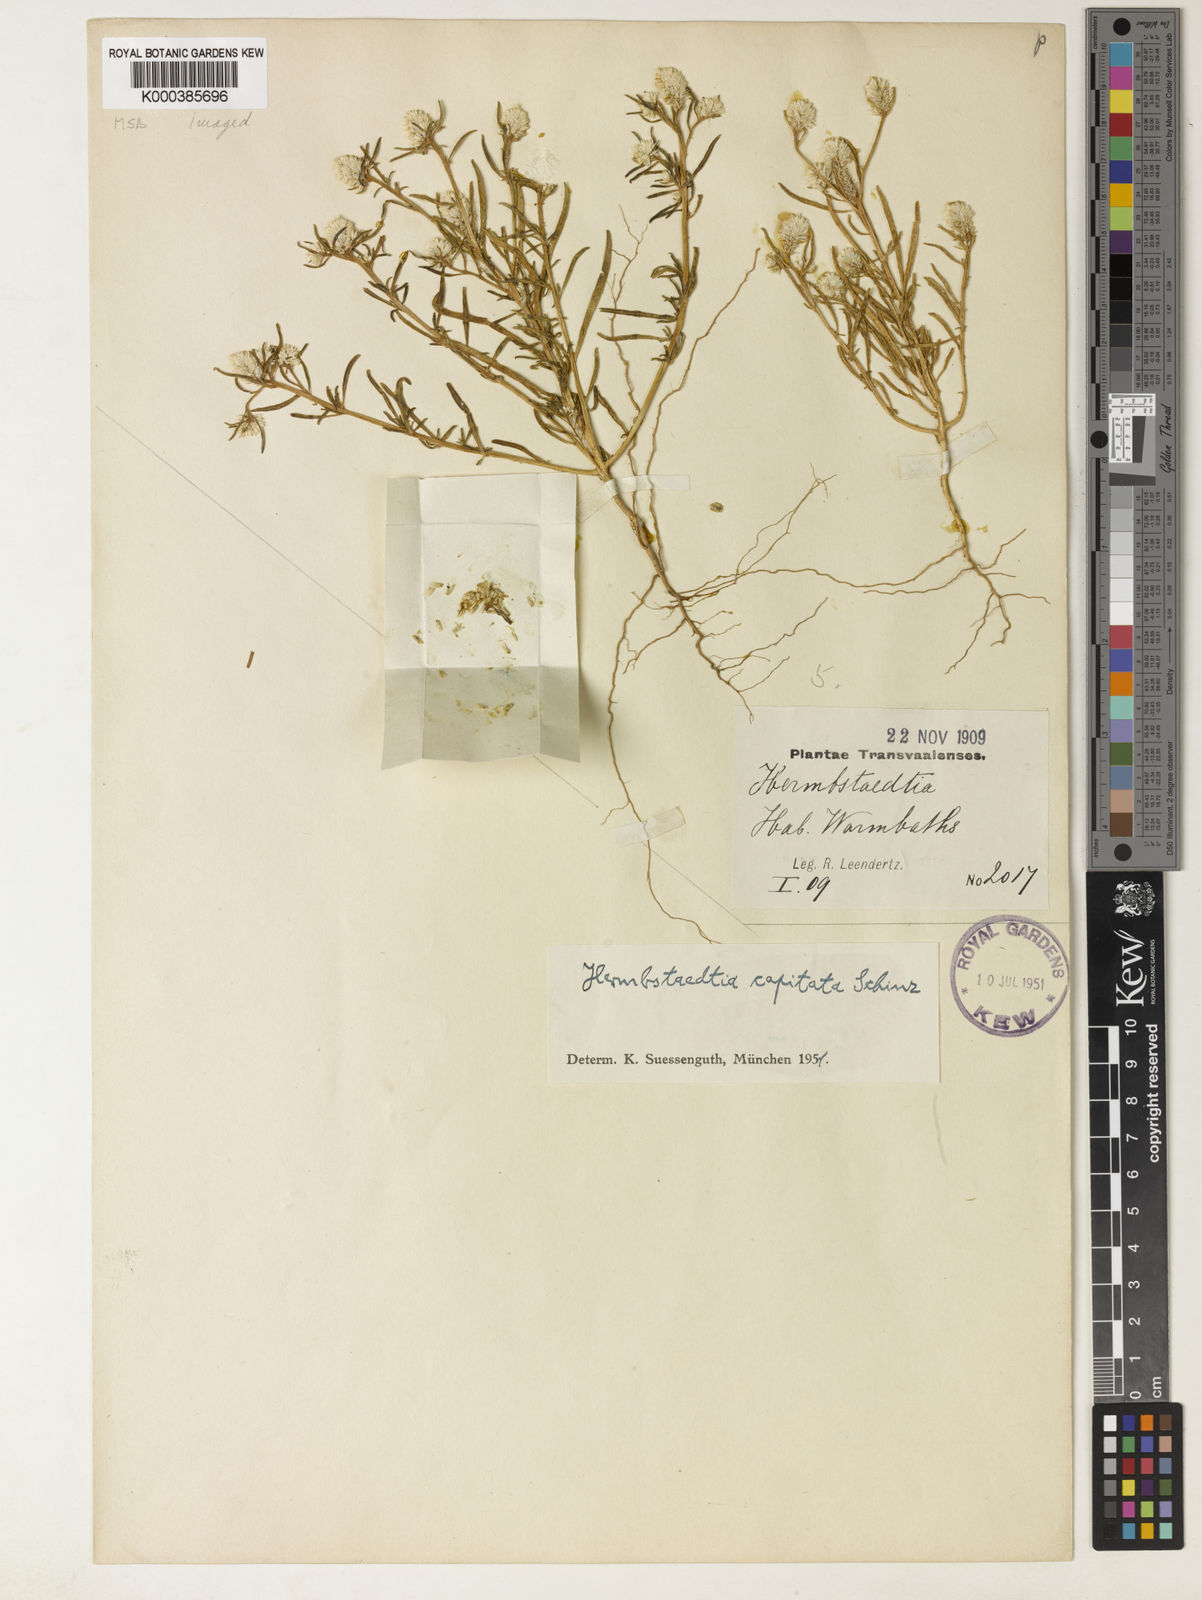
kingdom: Plantae
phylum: Tracheophyta
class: Magnoliopsida
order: Caryophyllales
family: Amaranthaceae
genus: Hermbstaedtia
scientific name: Hermbstaedtia capitata
